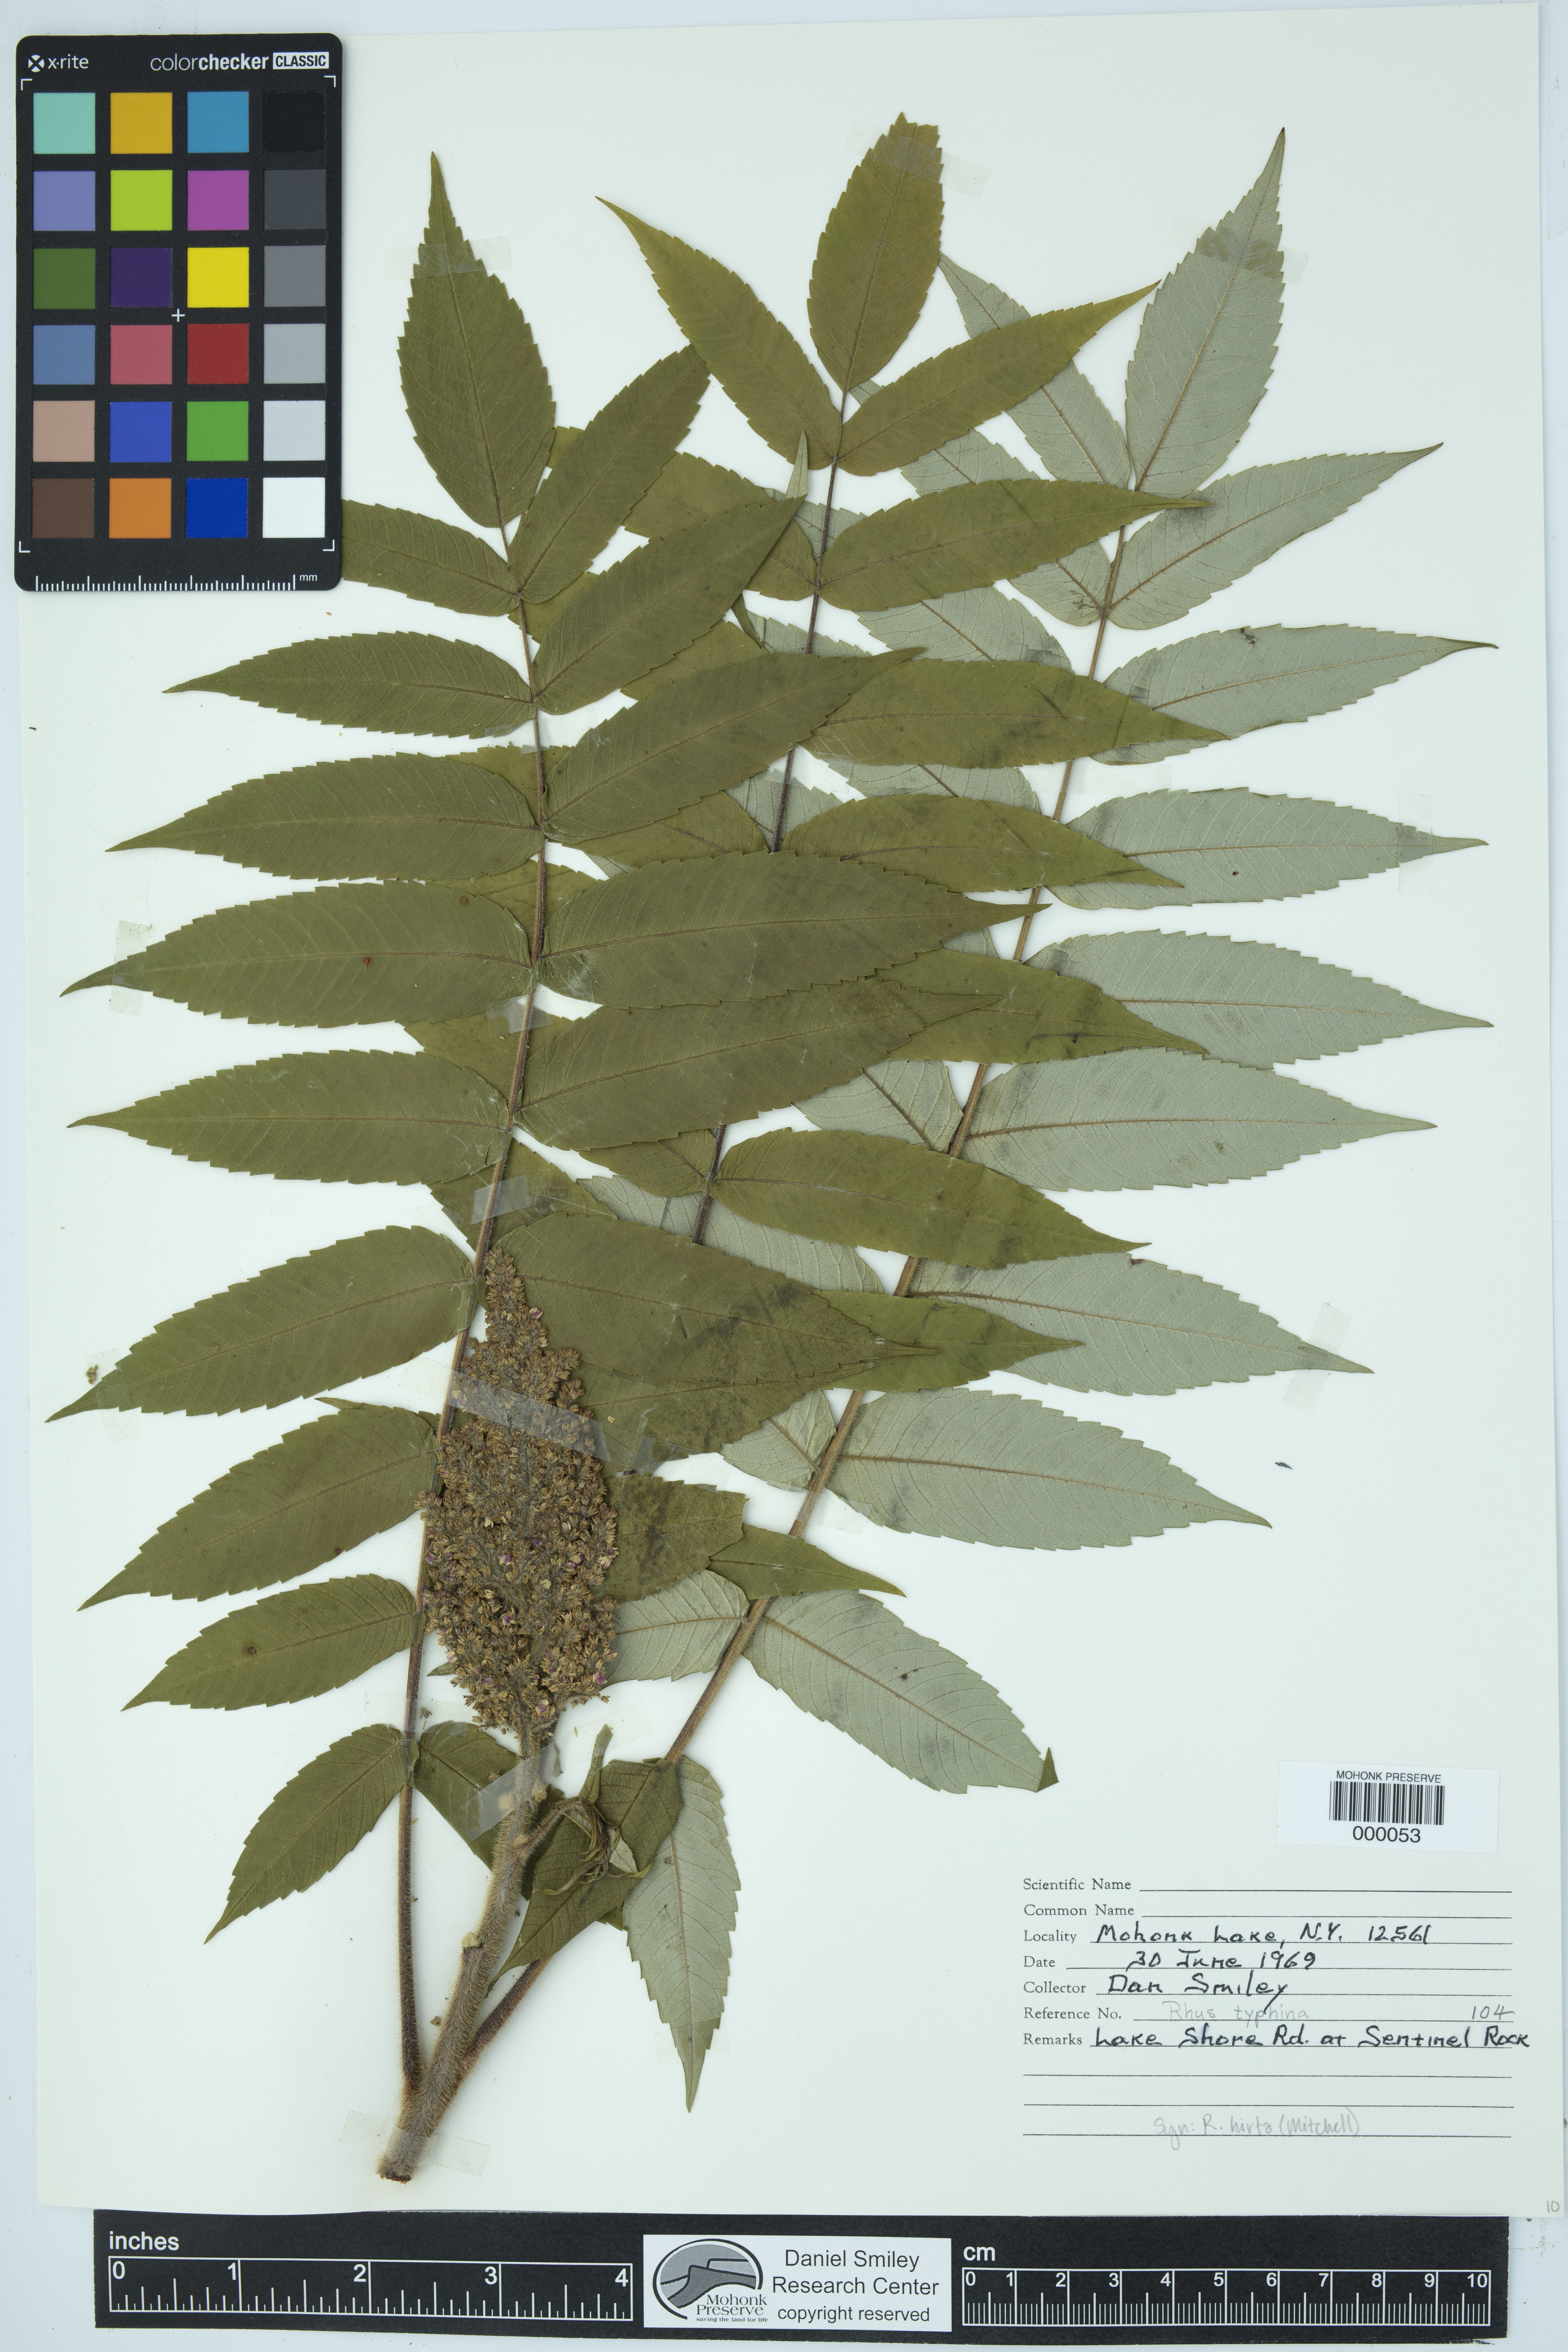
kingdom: Plantae
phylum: Tracheophyta
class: Magnoliopsida
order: Sapindales
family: Anacardiaceae
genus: Rhus
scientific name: Rhus typhina
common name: Staghorn sumac
